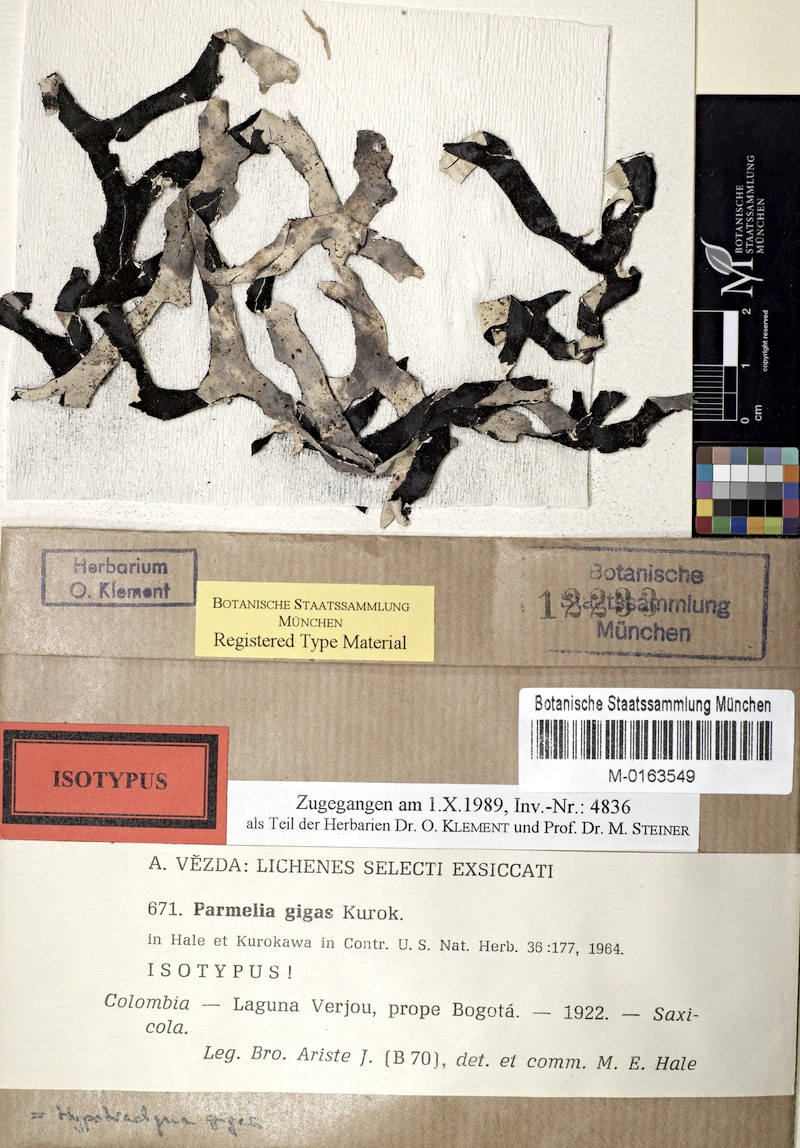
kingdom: Fungi
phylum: Ascomycota
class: Lecanoromycetes
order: Lecanorales
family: Parmeliaceae
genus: Hypotrachyna
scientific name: Hypotrachyna gigas
